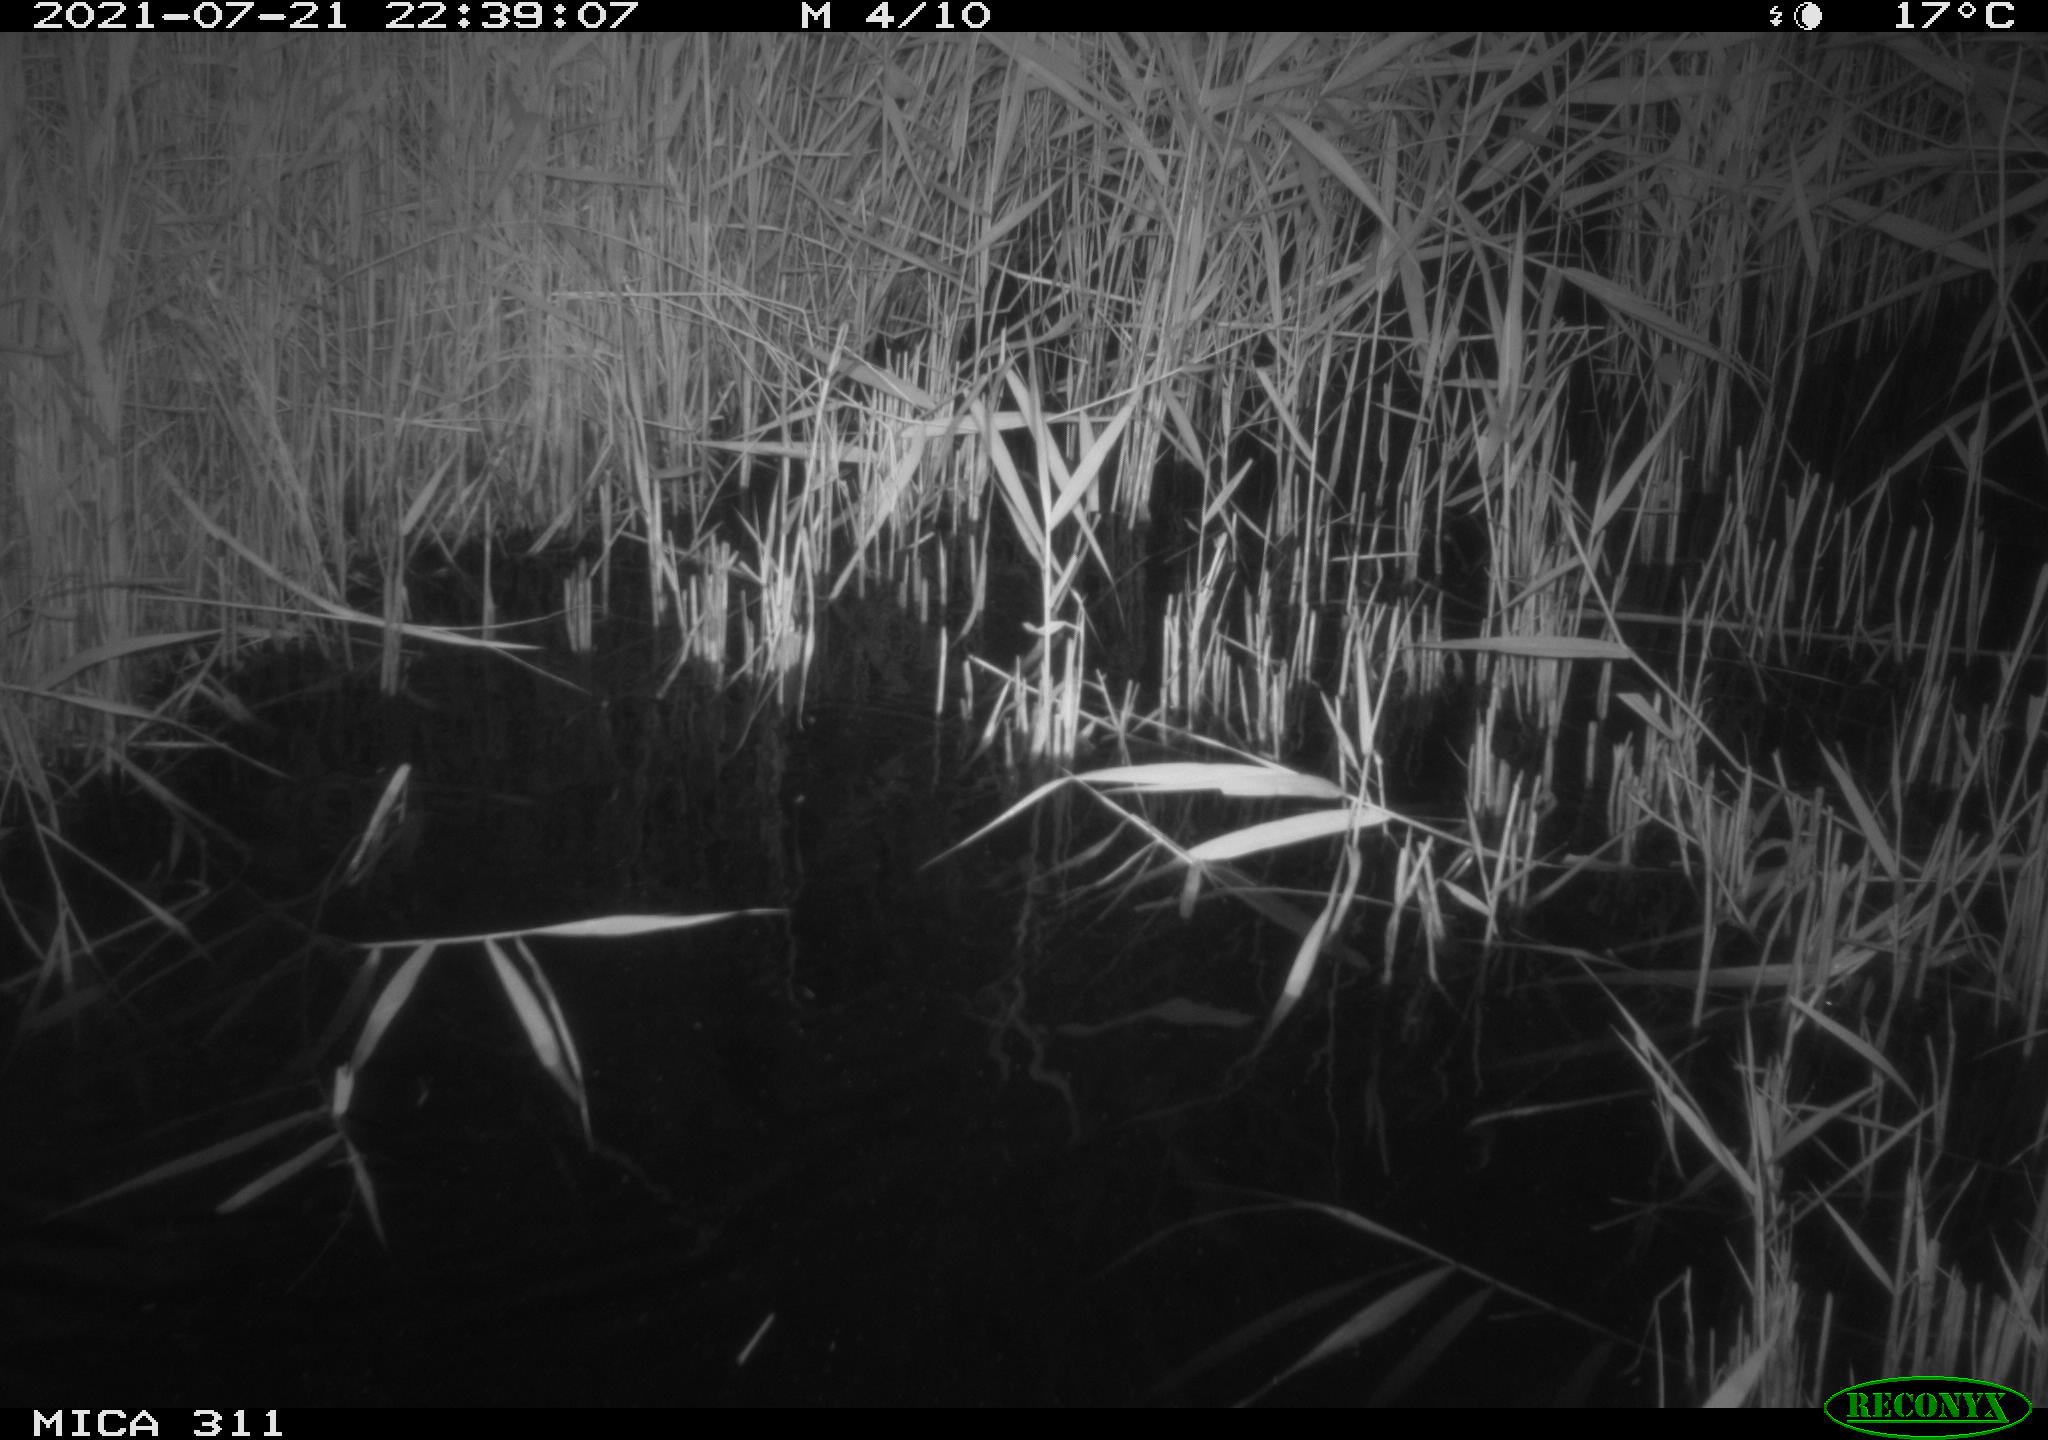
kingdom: Animalia
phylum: Chordata
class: Mammalia
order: Rodentia
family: Muridae
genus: Rattus
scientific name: Rattus norvegicus
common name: Brown rat
